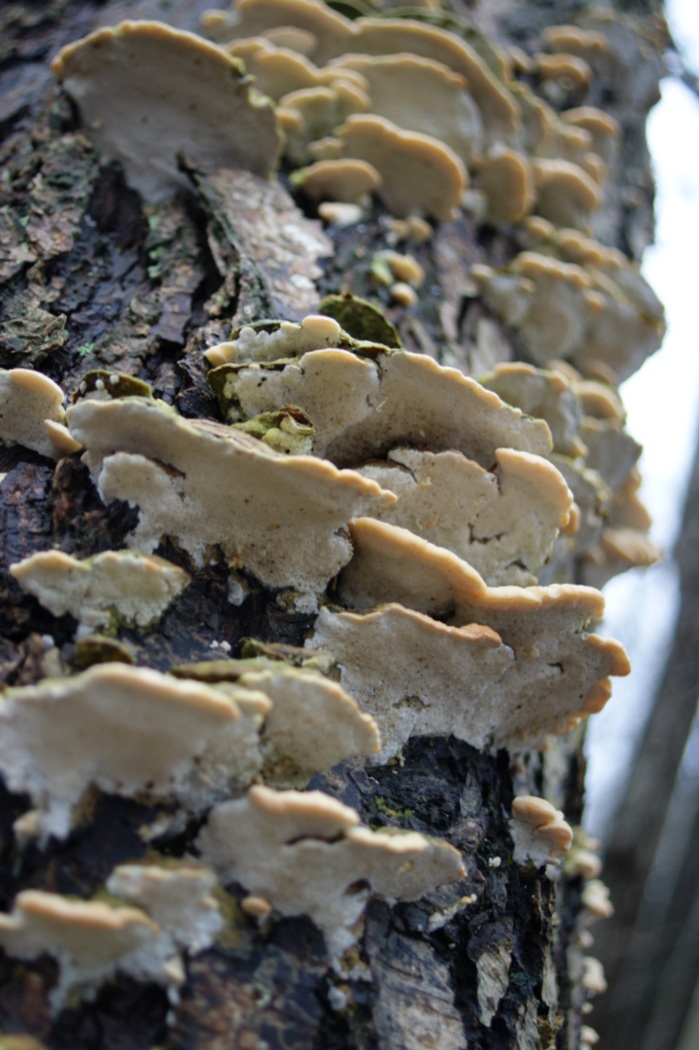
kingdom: Fungi
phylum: Basidiomycota
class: Agaricomycetes
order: Hymenochaetales
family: Oxyporaceae
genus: Oxyporus
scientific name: Oxyporus populinus
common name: sammenvokset trylleporesvamp
